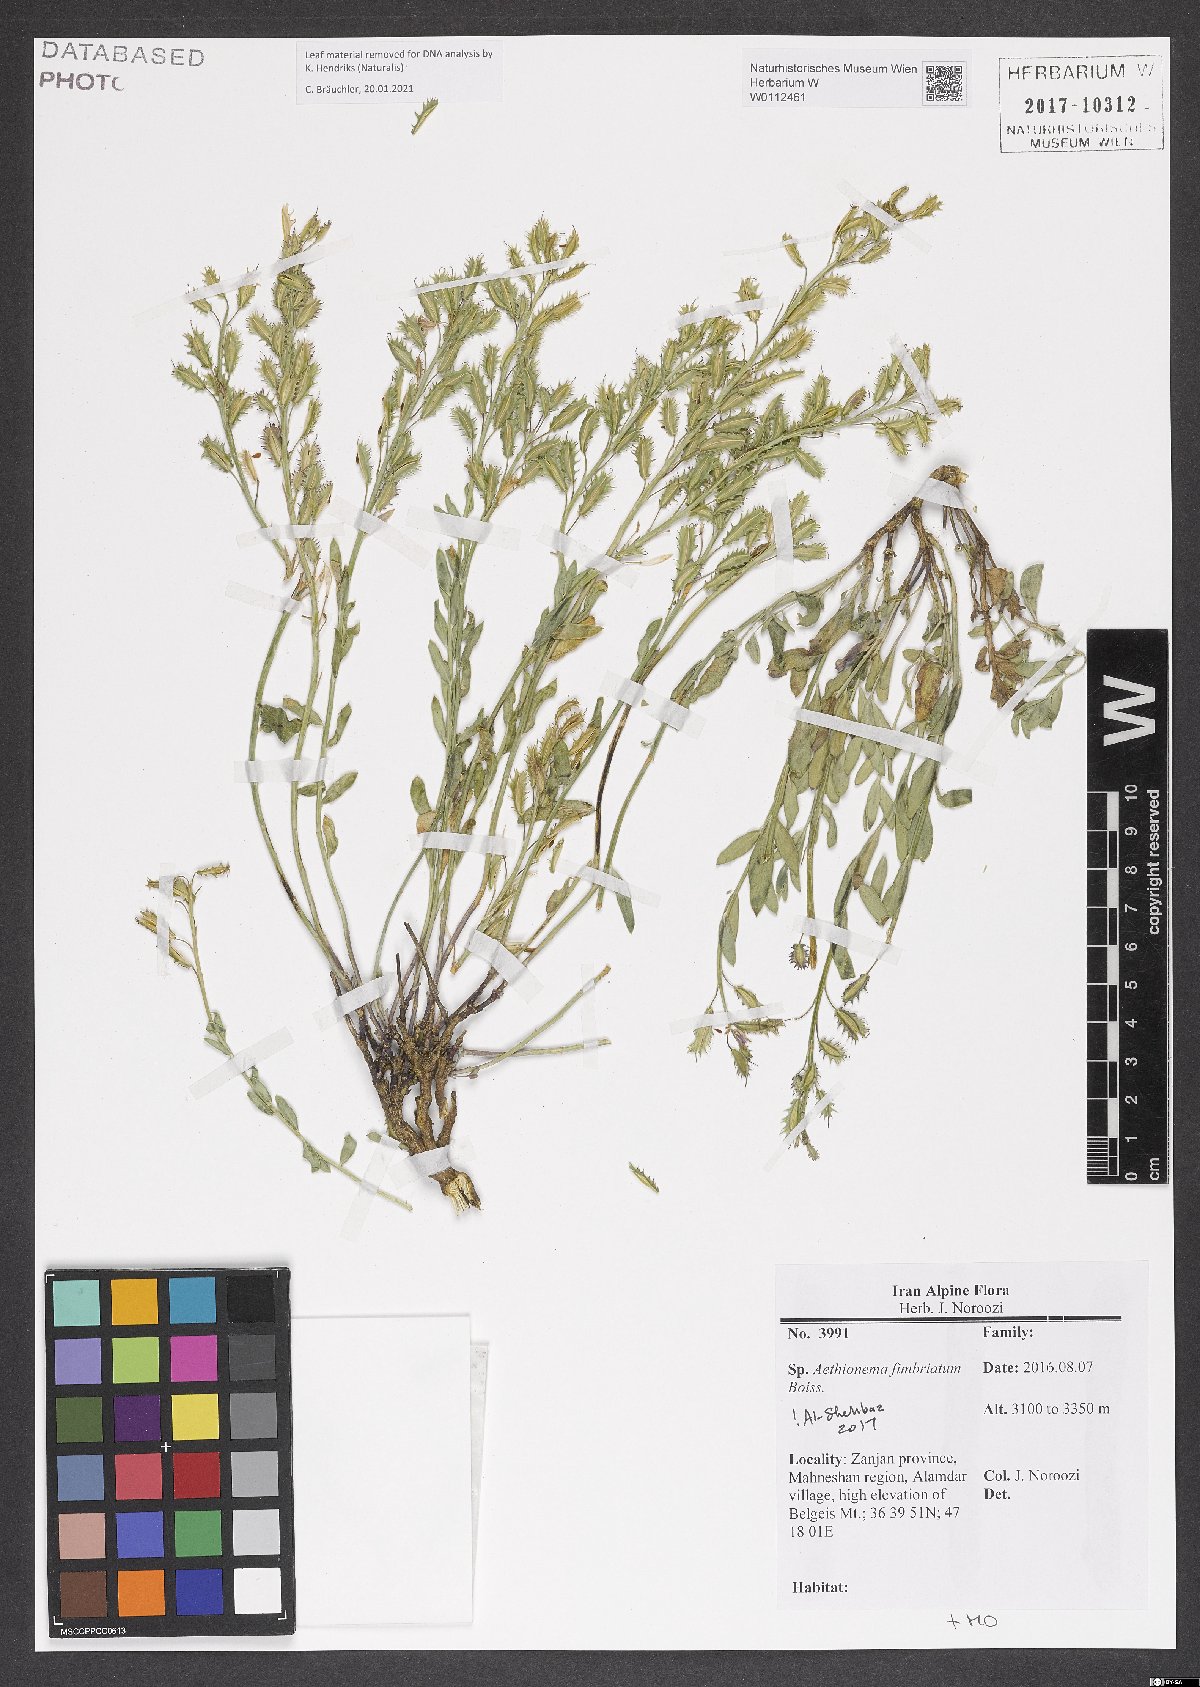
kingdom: Plantae
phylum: Tracheophyta
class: Magnoliopsida
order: Brassicales
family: Brassicaceae
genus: Aethionema
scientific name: Aethionema fimbriatum
